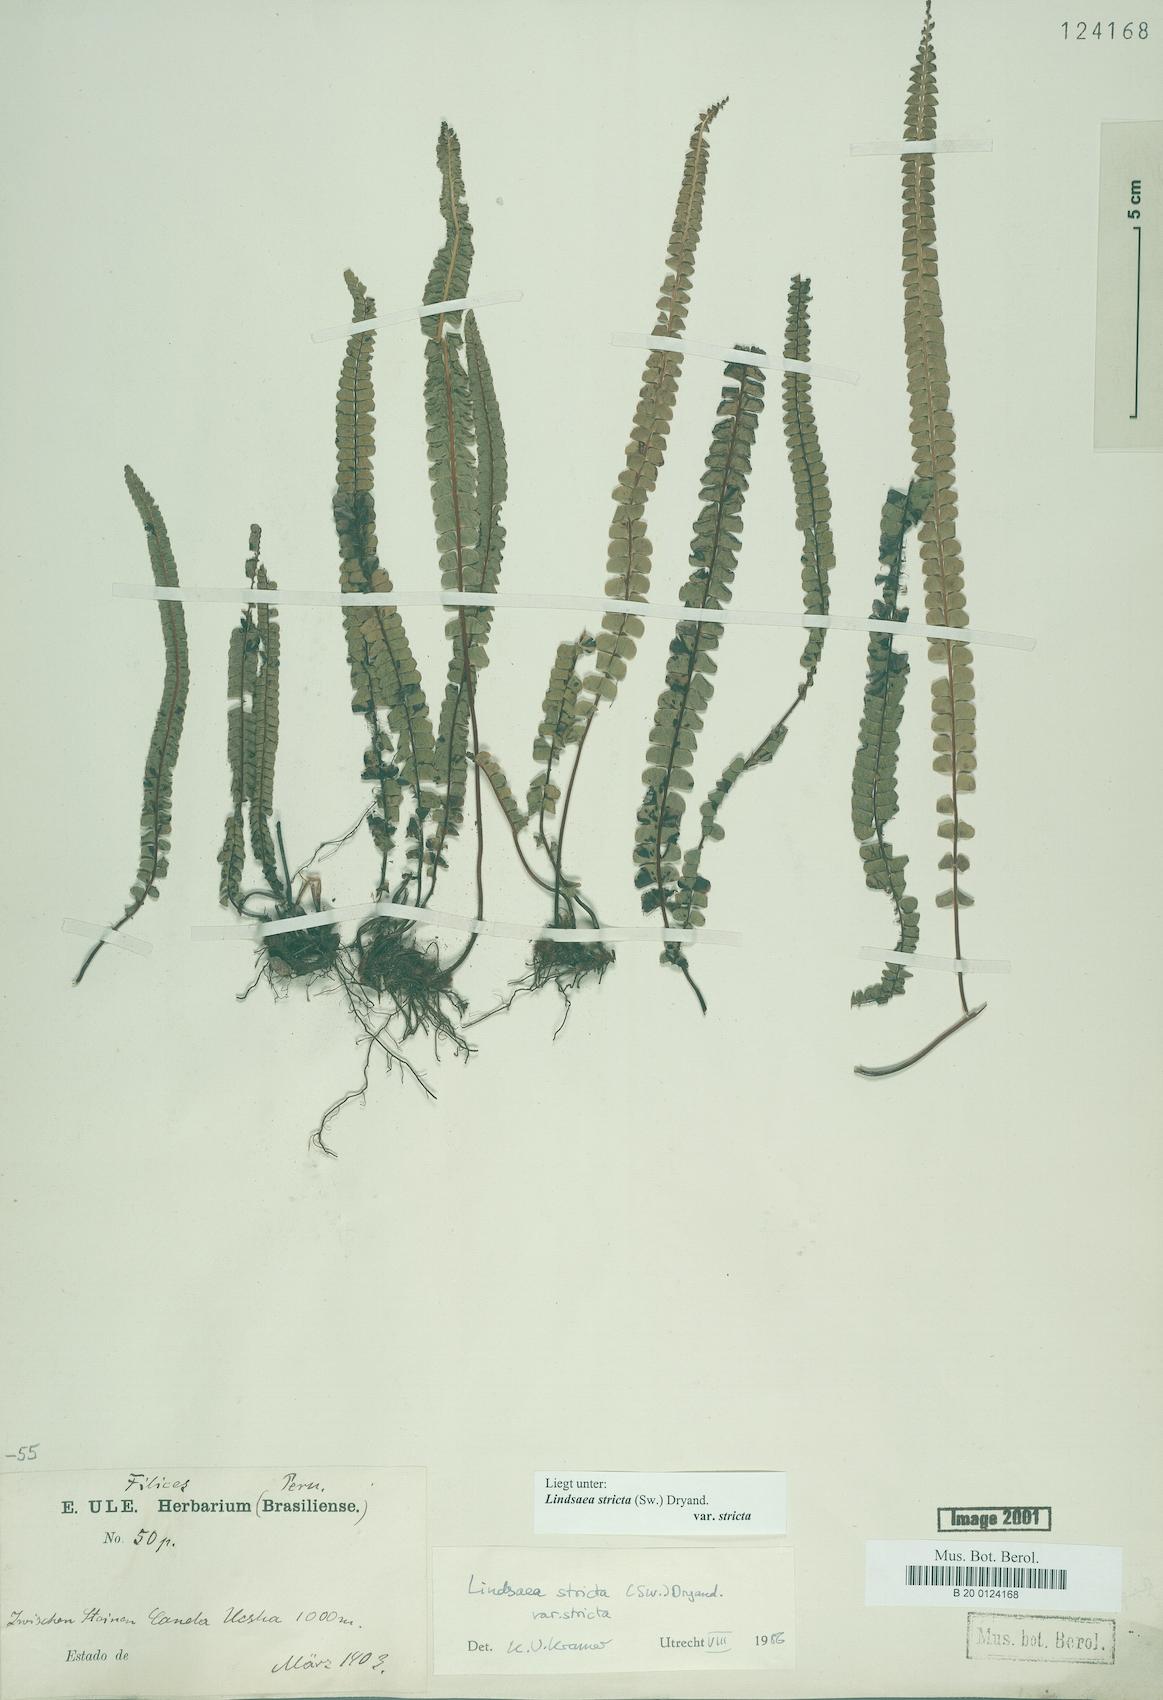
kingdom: Plantae
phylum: Tracheophyta
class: Polypodiopsida
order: Polypodiales
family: Lindsaeaceae
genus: Lindsaea
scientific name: Lindsaea stricta
